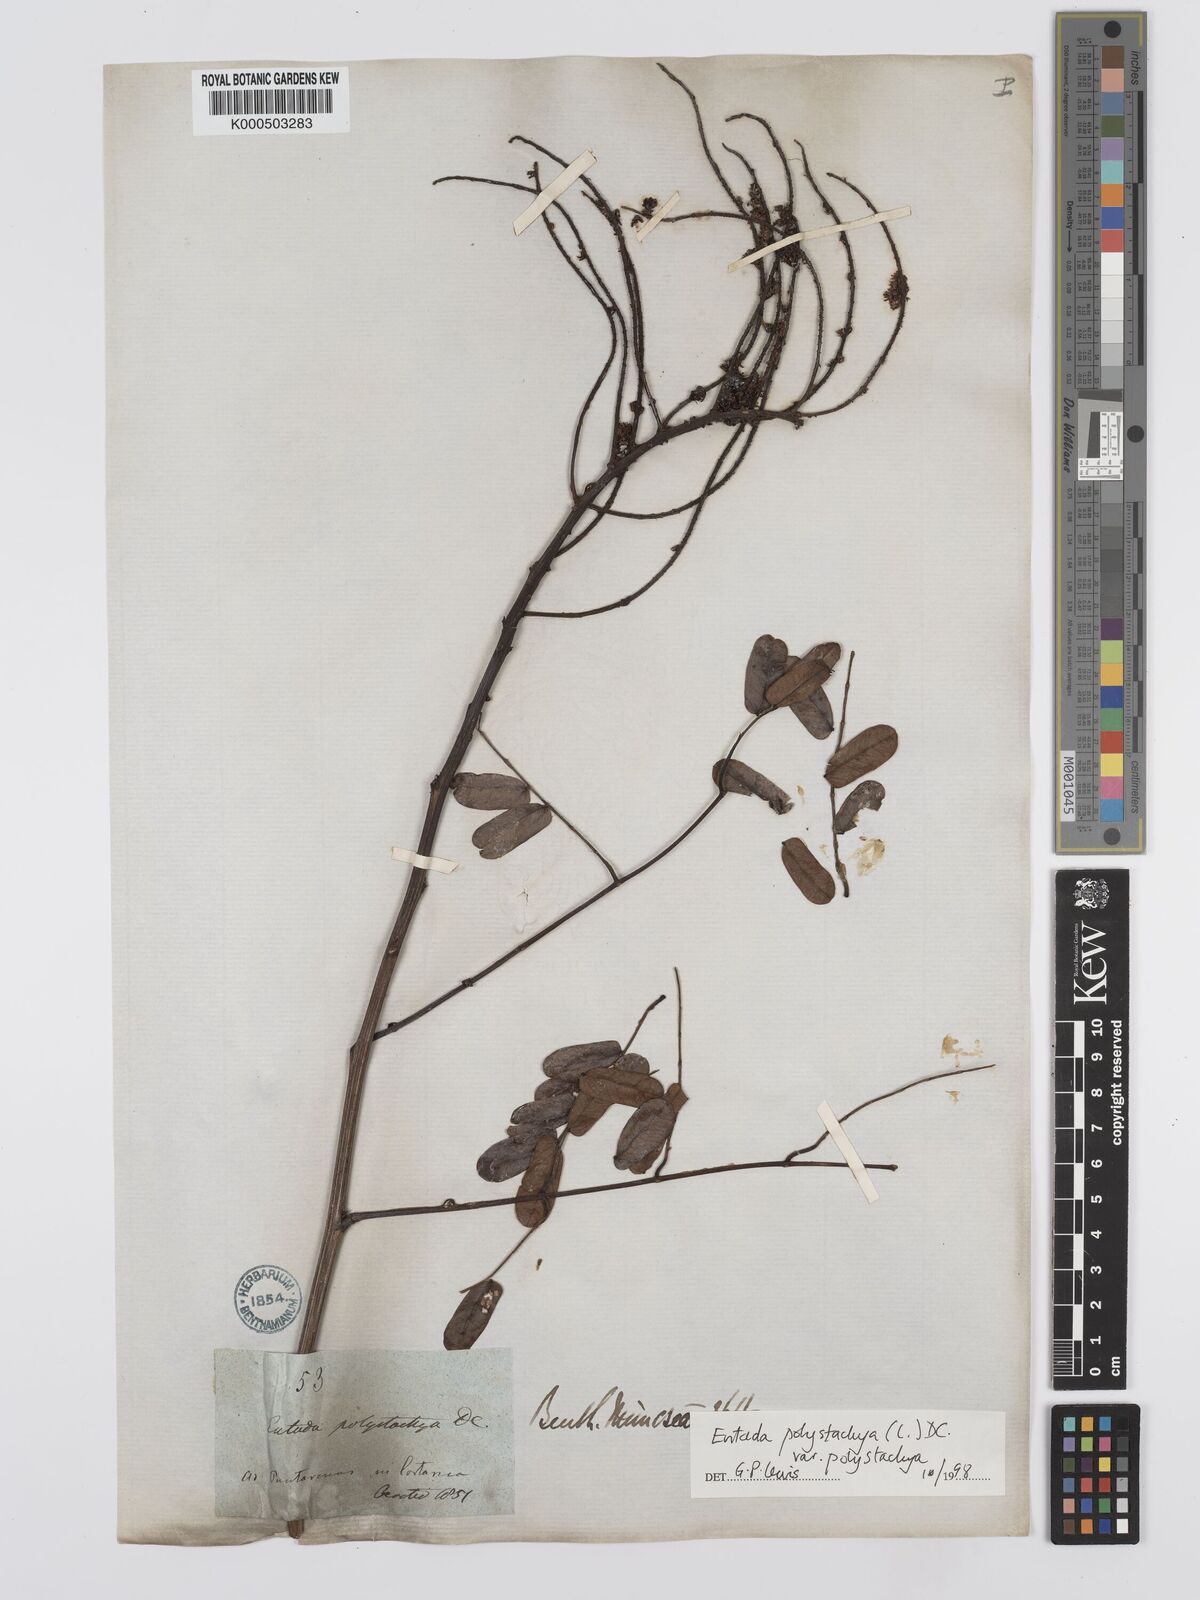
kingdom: Plantae
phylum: Tracheophyta
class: Magnoliopsida
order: Fabales
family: Fabaceae
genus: Entada
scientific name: Entada polystachya
